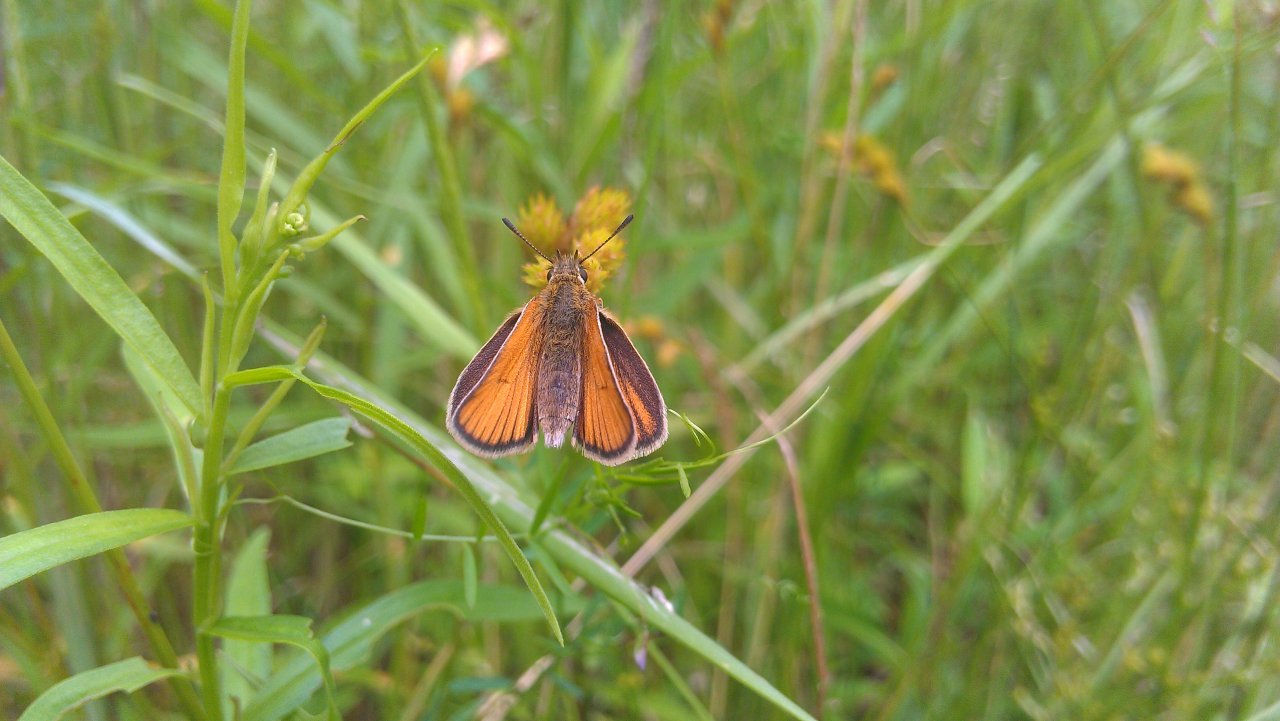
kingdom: Animalia
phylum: Arthropoda
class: Insecta
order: Lepidoptera
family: Hesperiidae
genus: Thymelicus
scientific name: Thymelicus lineola
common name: European Skipper
